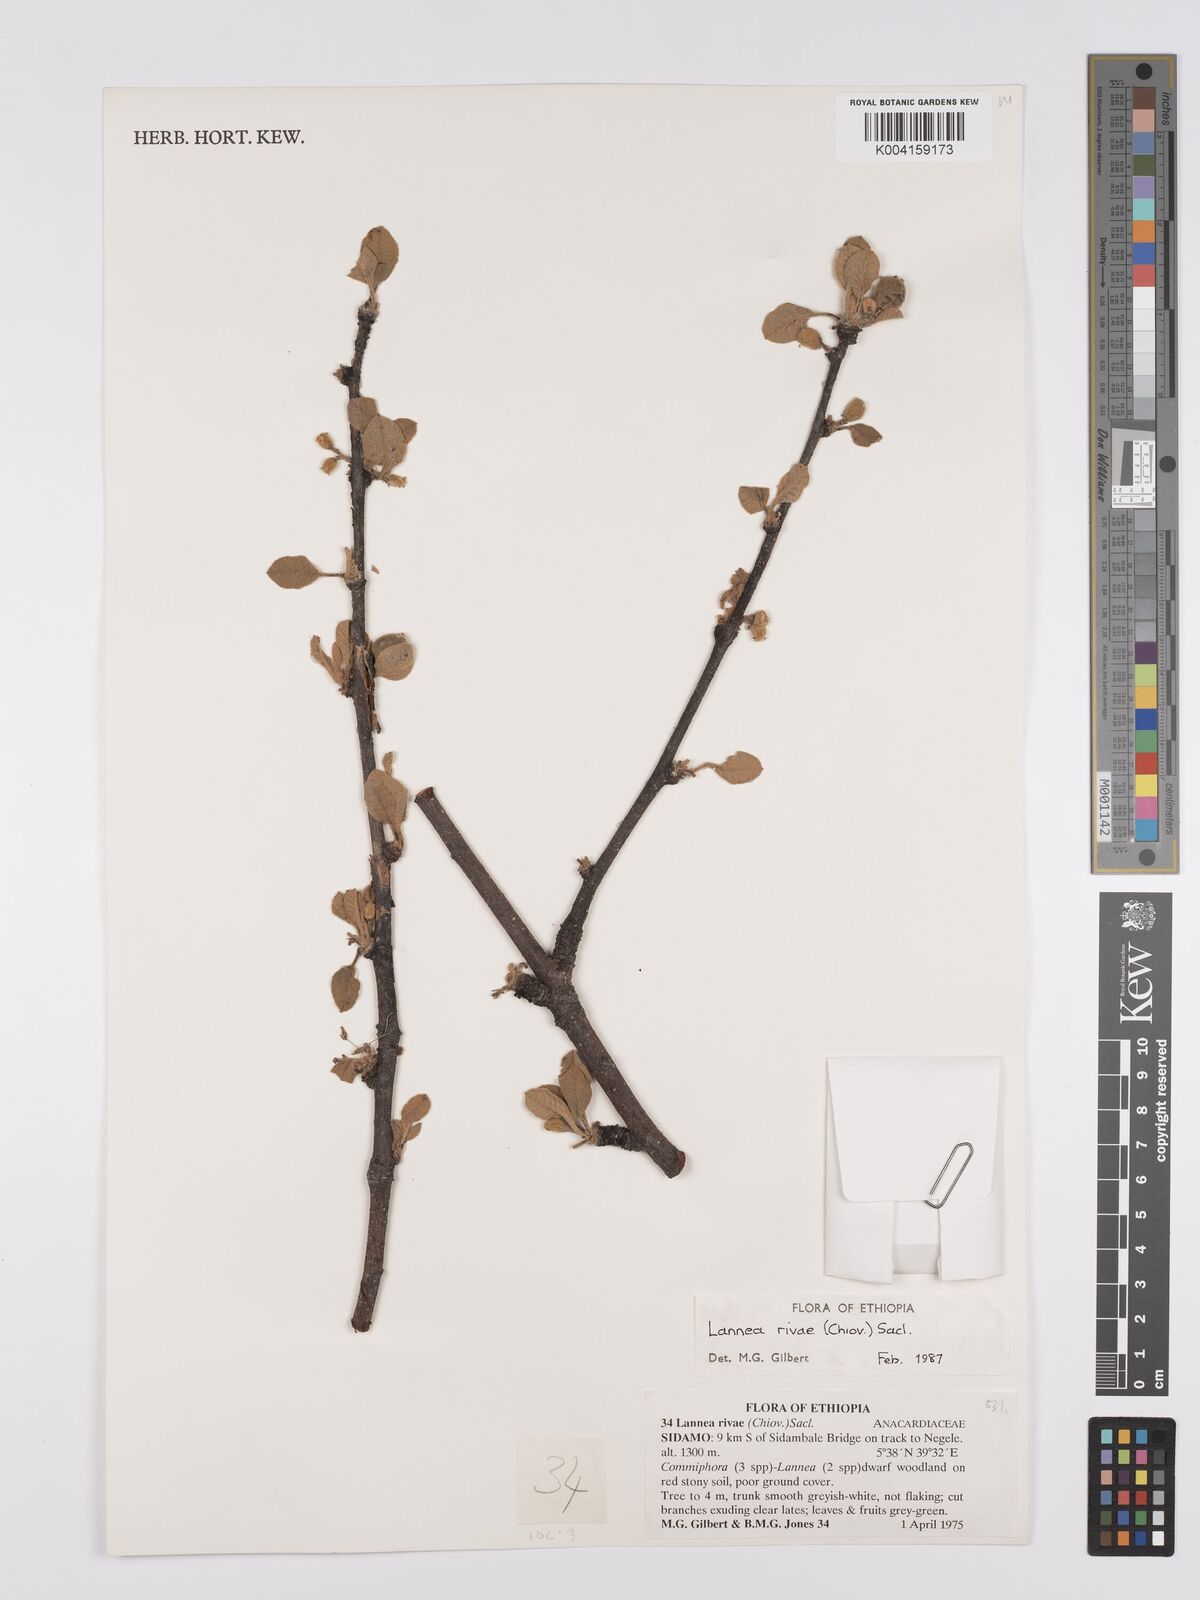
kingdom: Plantae
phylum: Tracheophyta
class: Magnoliopsida
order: Sapindales
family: Anacardiaceae
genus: Lannea
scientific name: Lannea rivae
